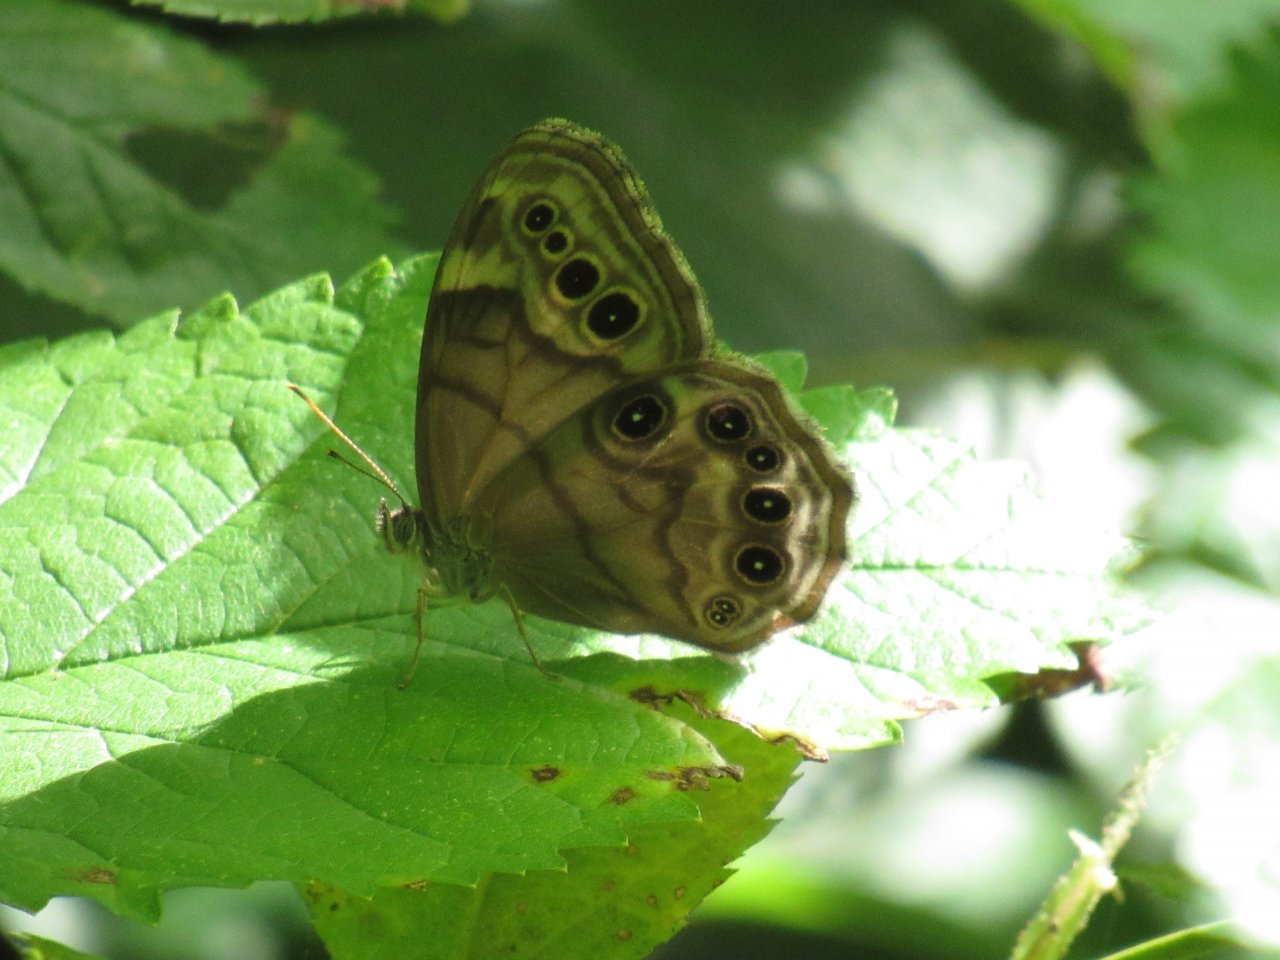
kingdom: Animalia
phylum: Arthropoda
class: Insecta
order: Lepidoptera
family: Nymphalidae
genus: Lethe
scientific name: Lethe anthedon
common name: Northern Pearly-Eye
